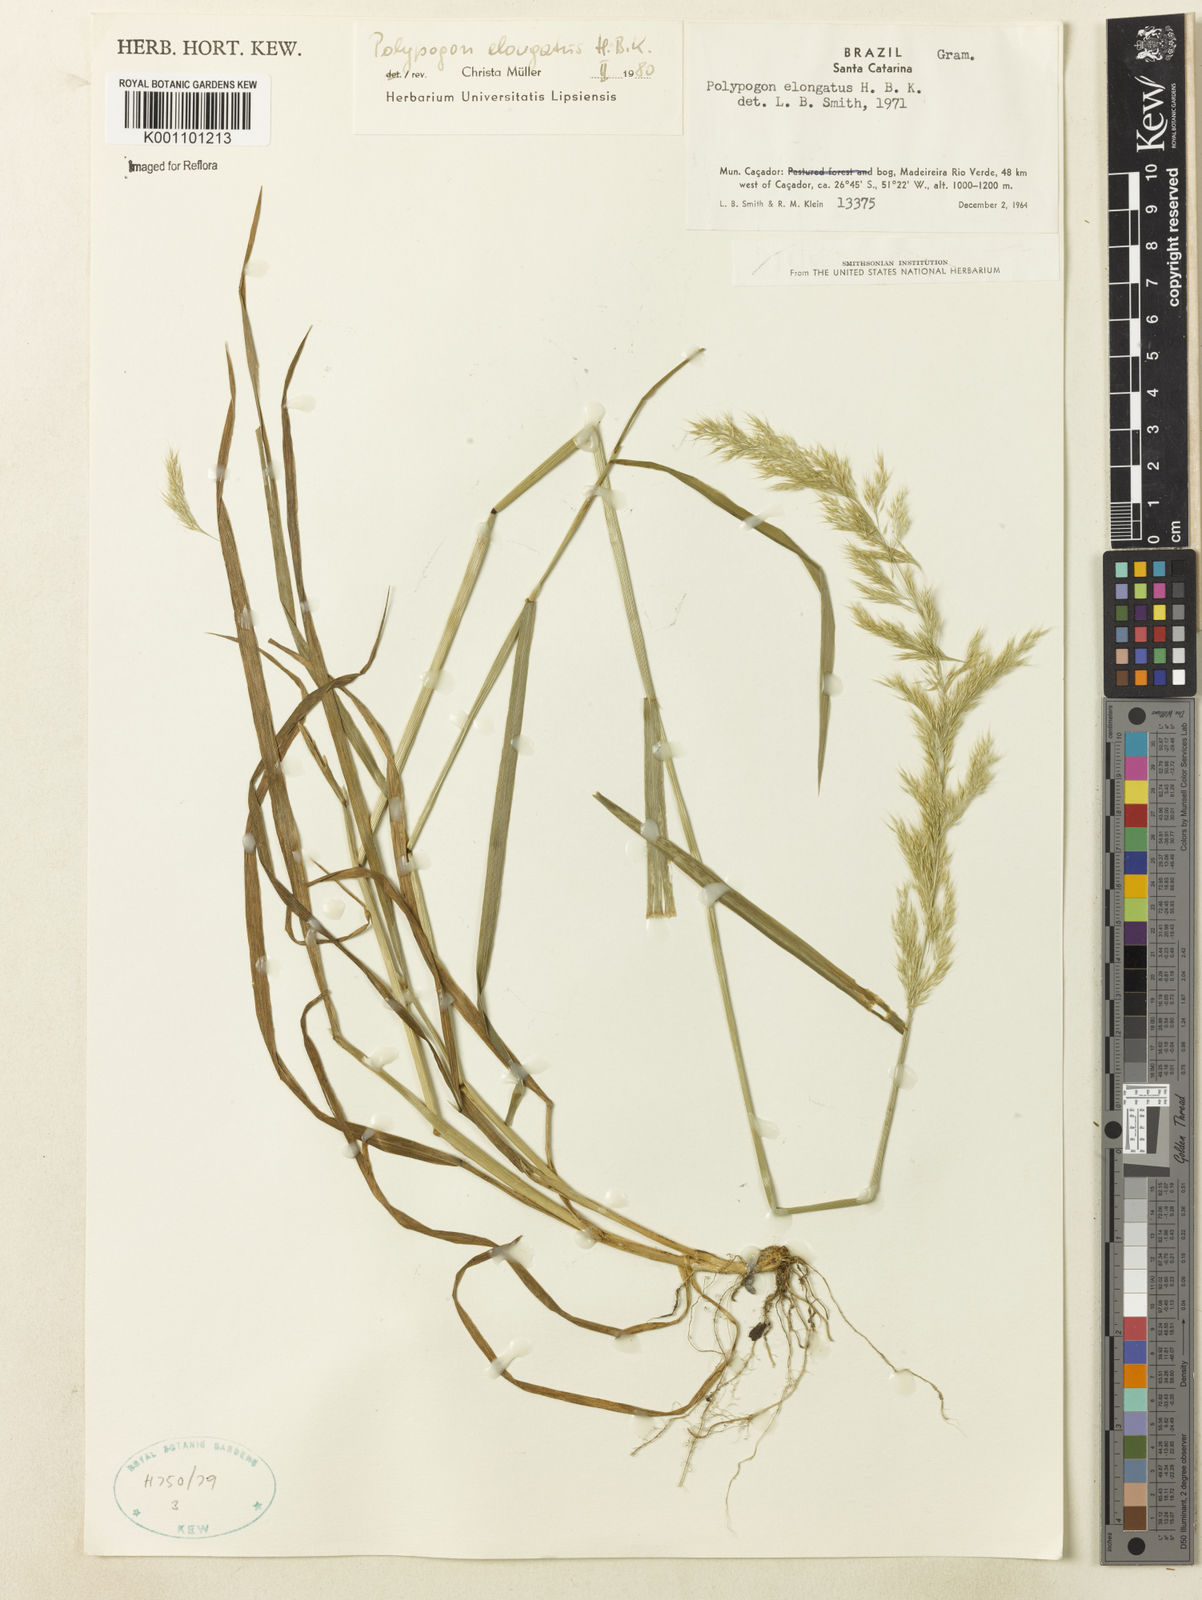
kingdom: Plantae
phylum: Tracheophyta
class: Liliopsida
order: Poales
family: Poaceae
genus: Polypogon
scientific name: Polypogon elongatus
